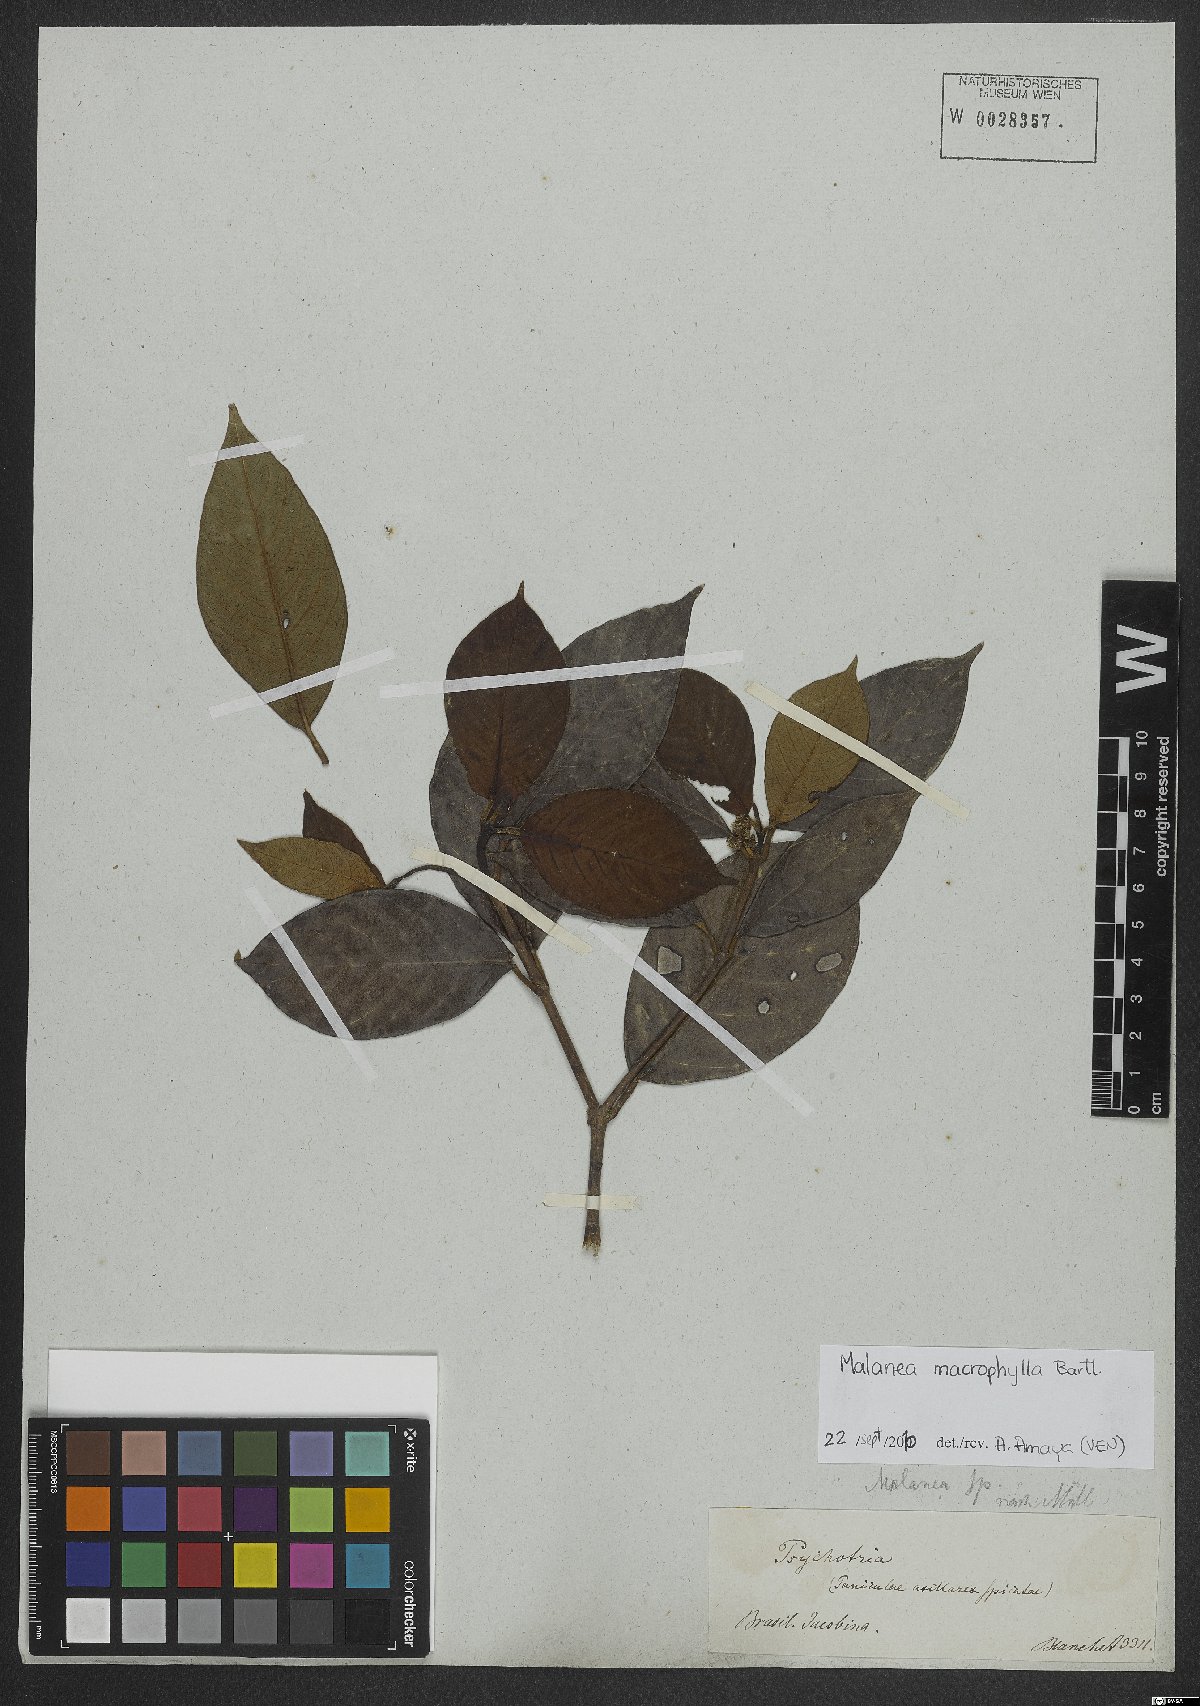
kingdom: Plantae
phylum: Tracheophyta
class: Magnoliopsida
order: Gentianales
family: Rubiaceae
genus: Malanea
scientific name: Malanea glabra
